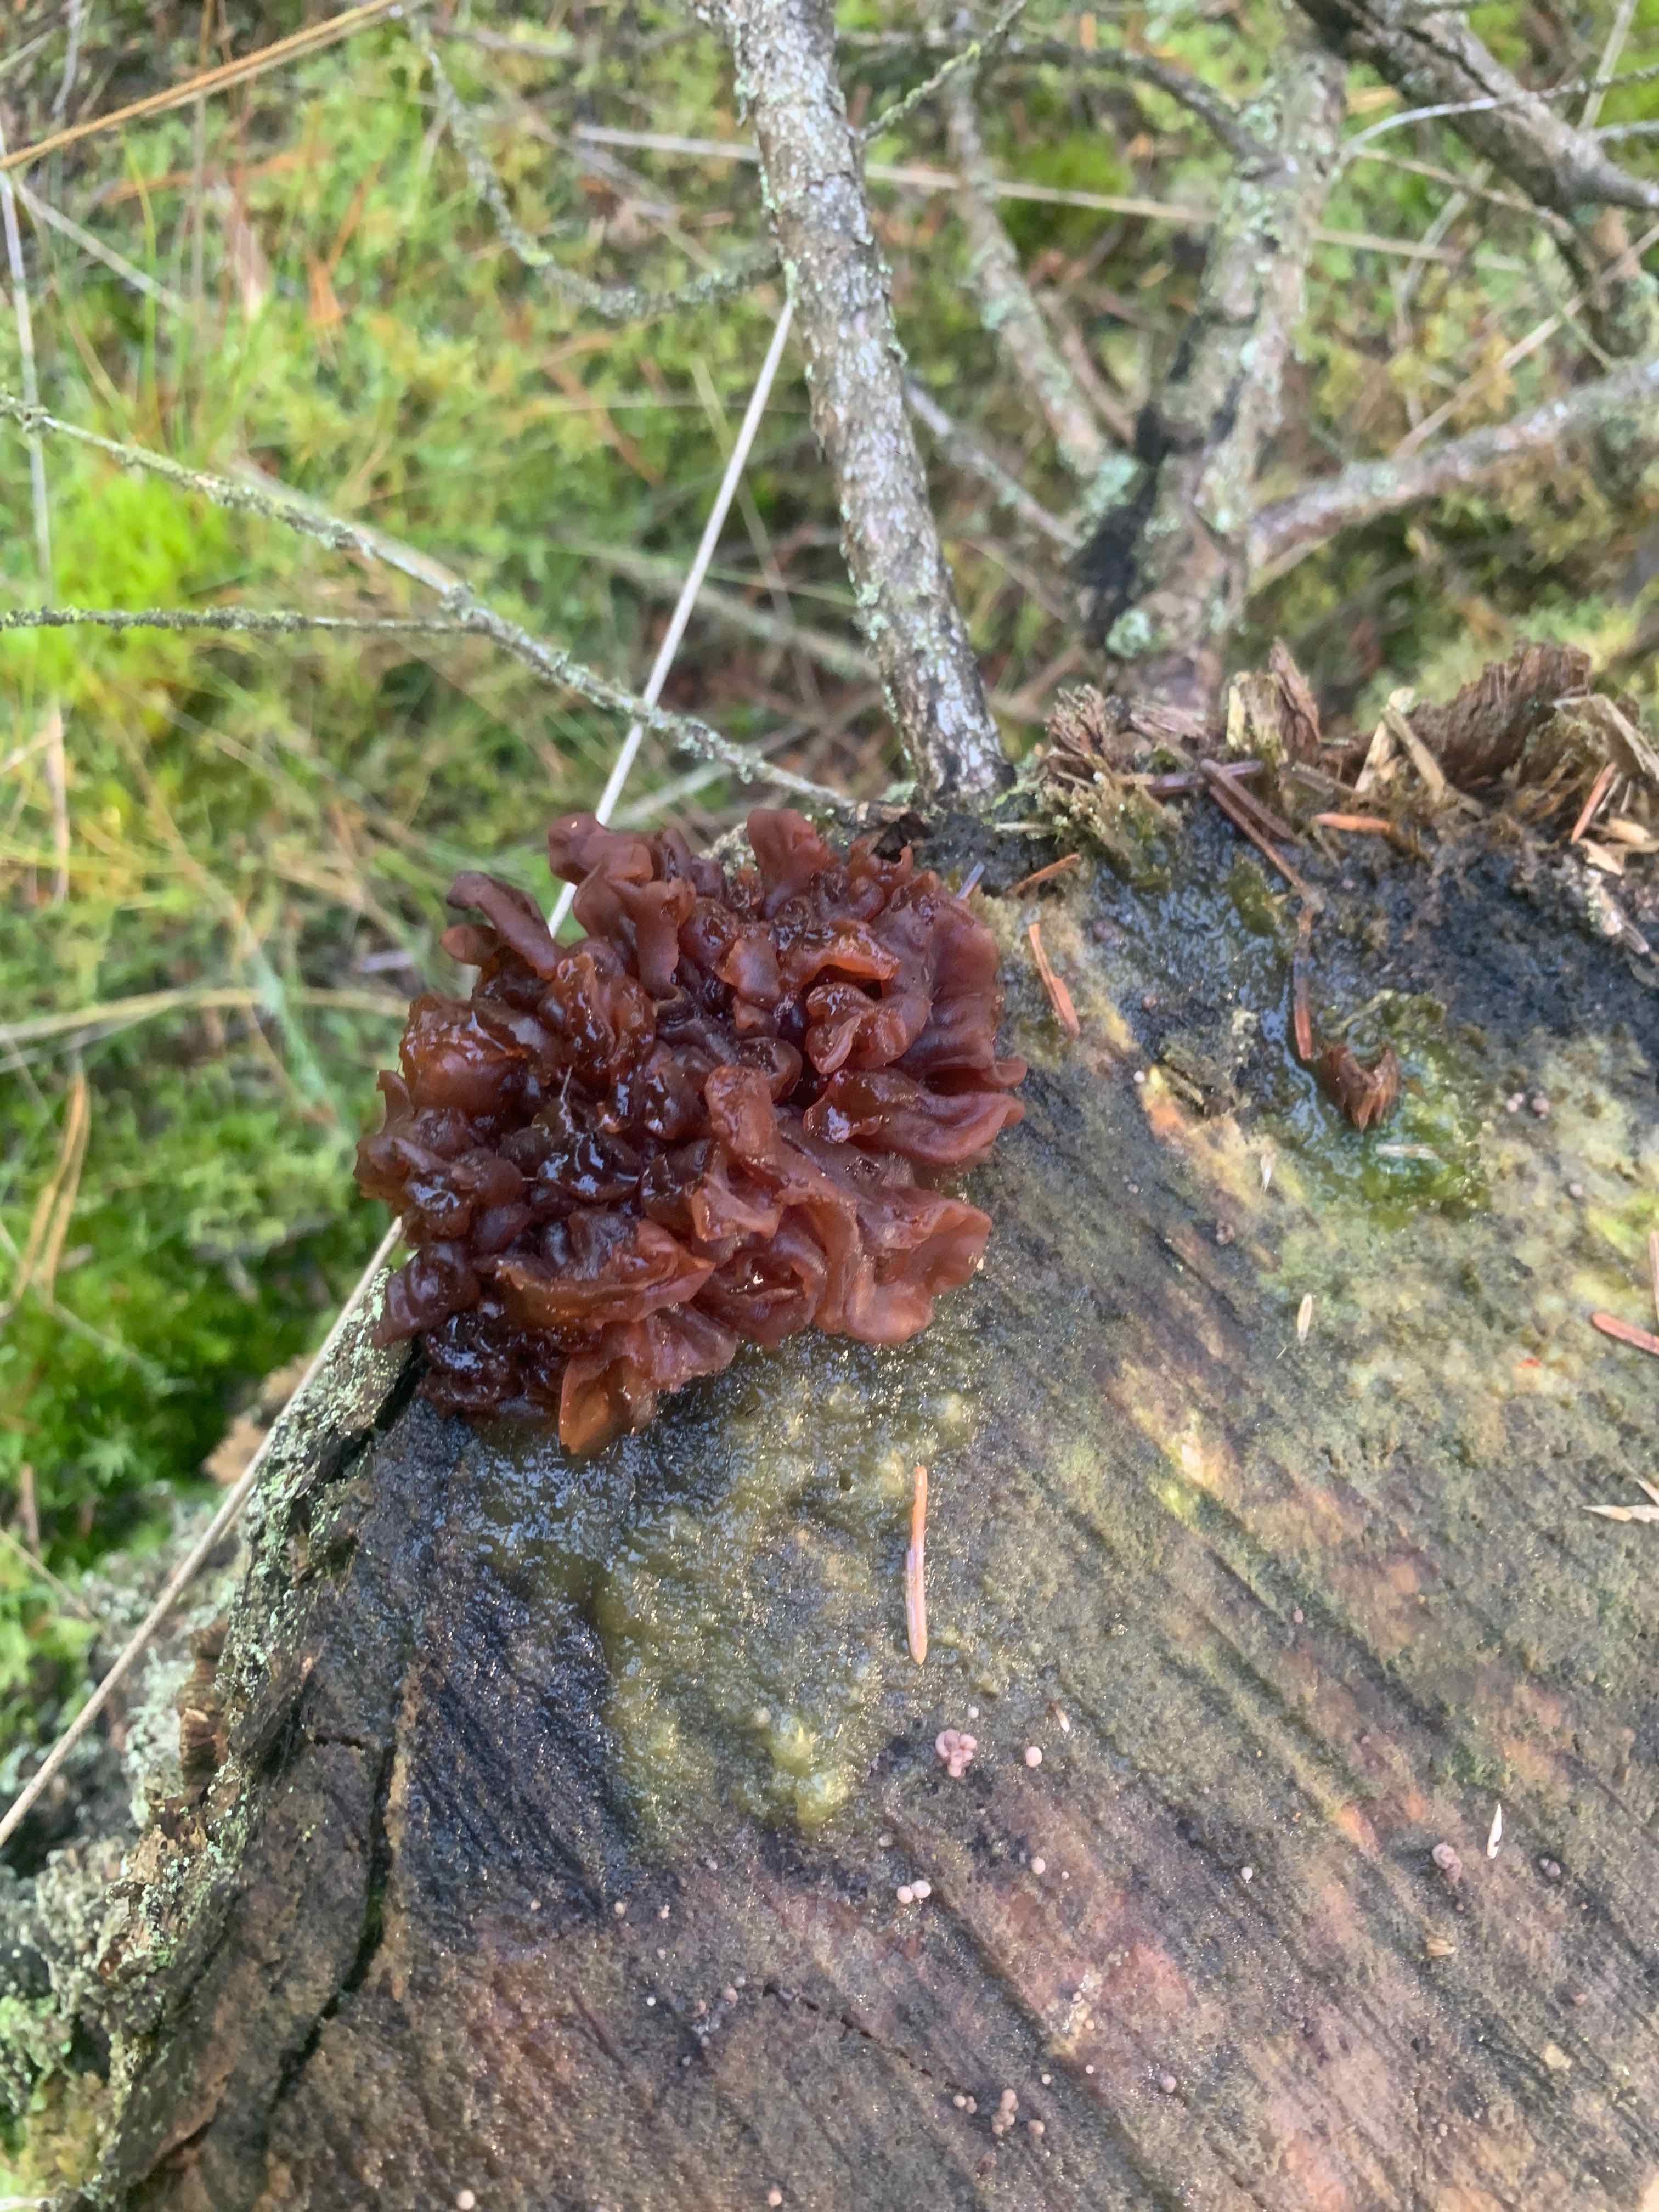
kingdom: Fungi
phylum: Basidiomycota
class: Tremellomycetes
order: Tremellales
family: Tremellaceae
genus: Phaeotremella
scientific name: Phaeotremella foliacea
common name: brun bævresvamp
